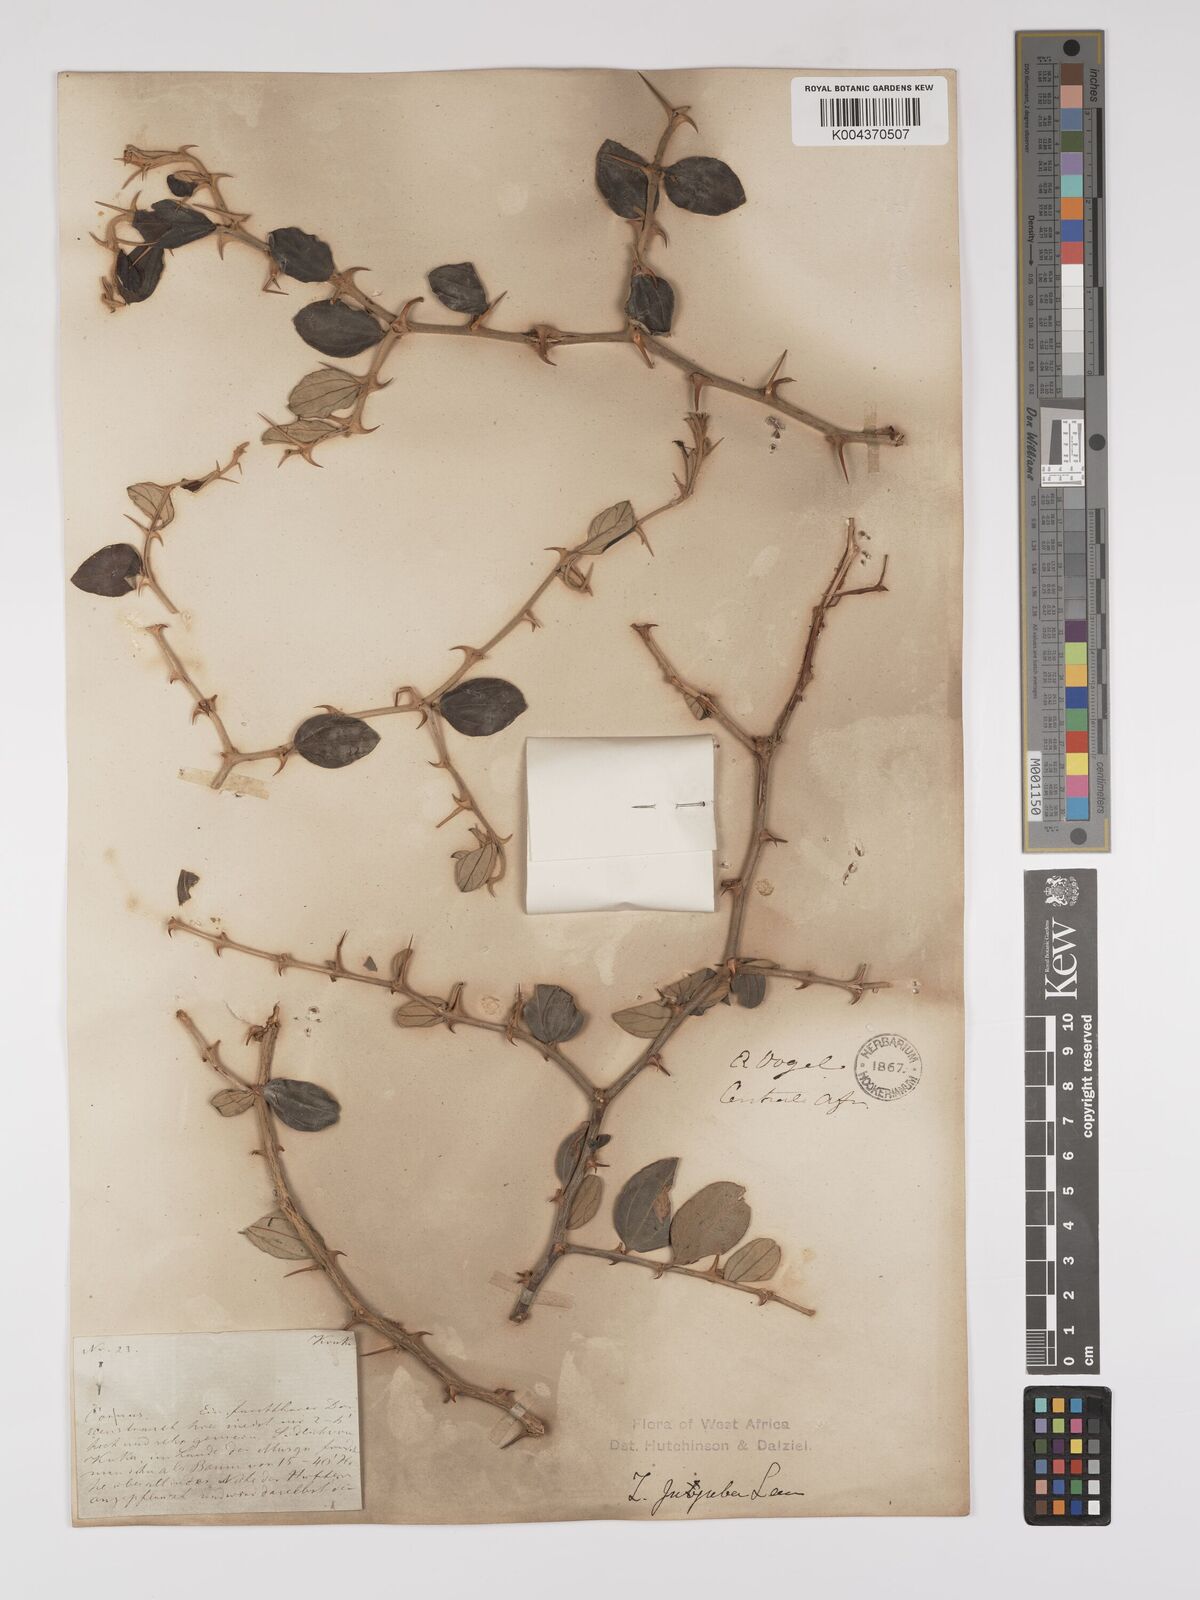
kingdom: Plantae
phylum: Tracheophyta
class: Magnoliopsida
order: Rosales
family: Rhamnaceae
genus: Ziziphus
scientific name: Ziziphus mauritiana
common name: Indian jujube
